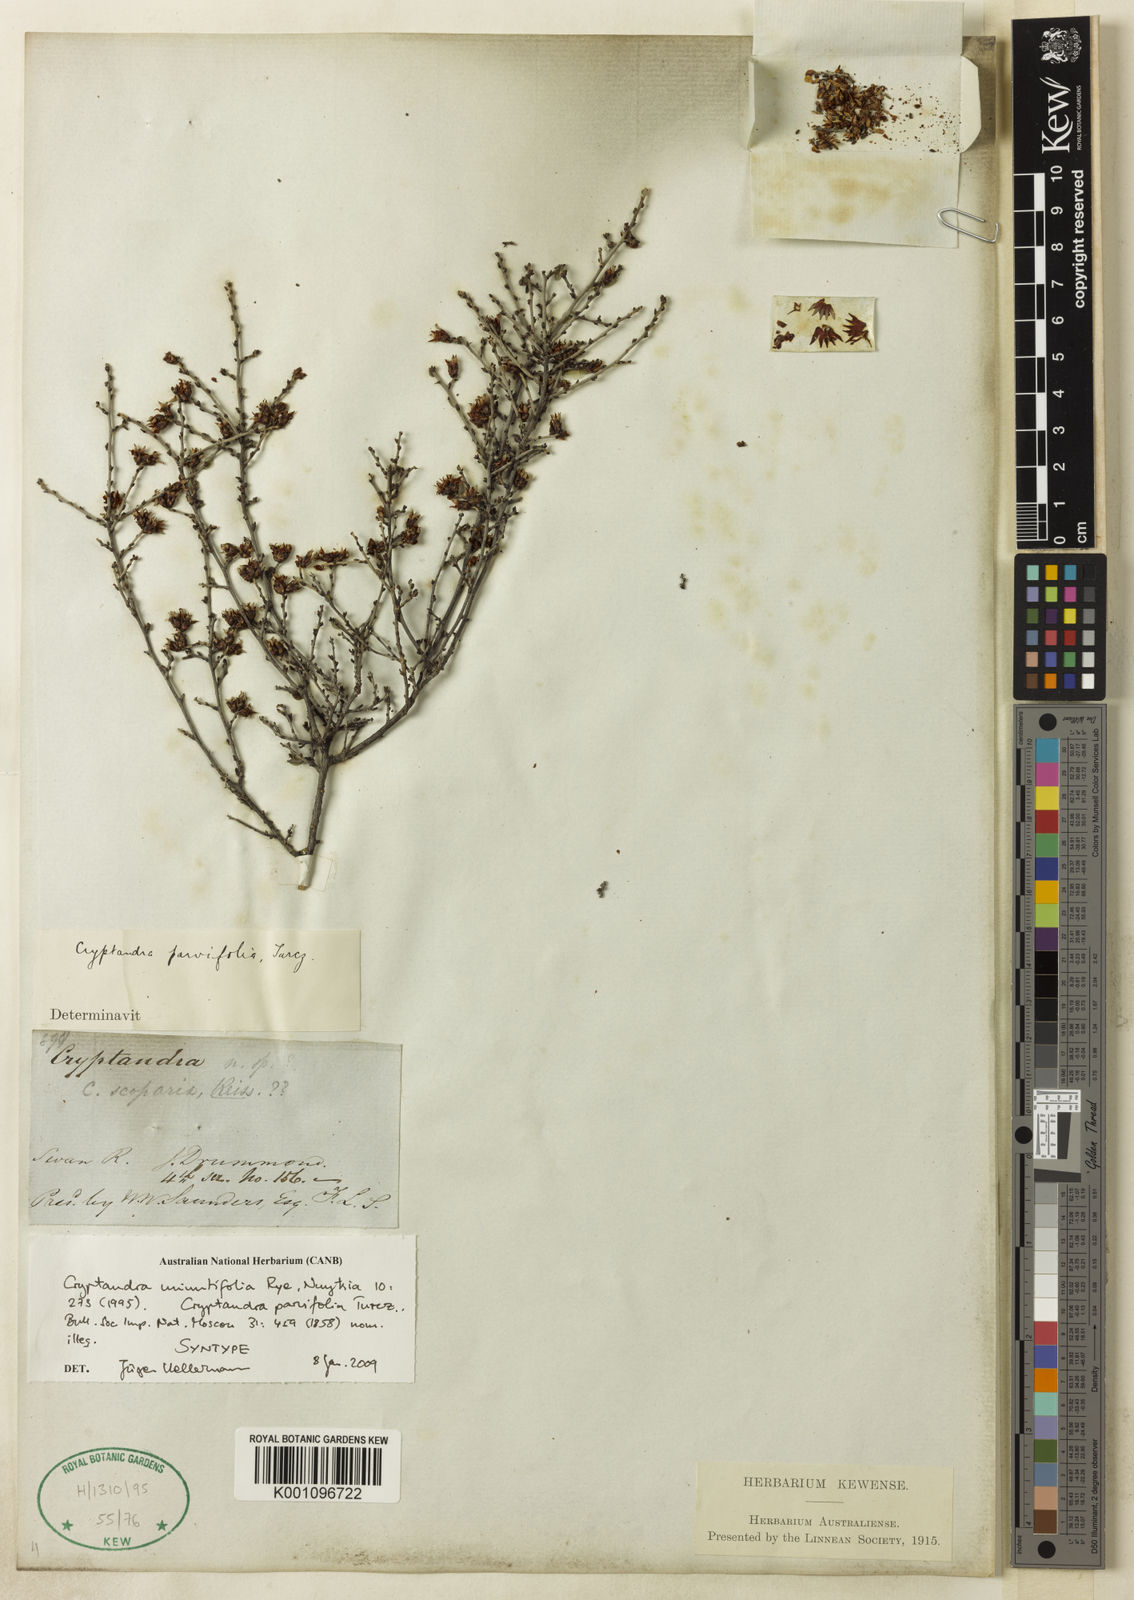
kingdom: Plantae
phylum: Tracheophyta
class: Magnoliopsida
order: Rosales
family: Rhamnaceae
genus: Cryptandra
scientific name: Cryptandra minutifolia
